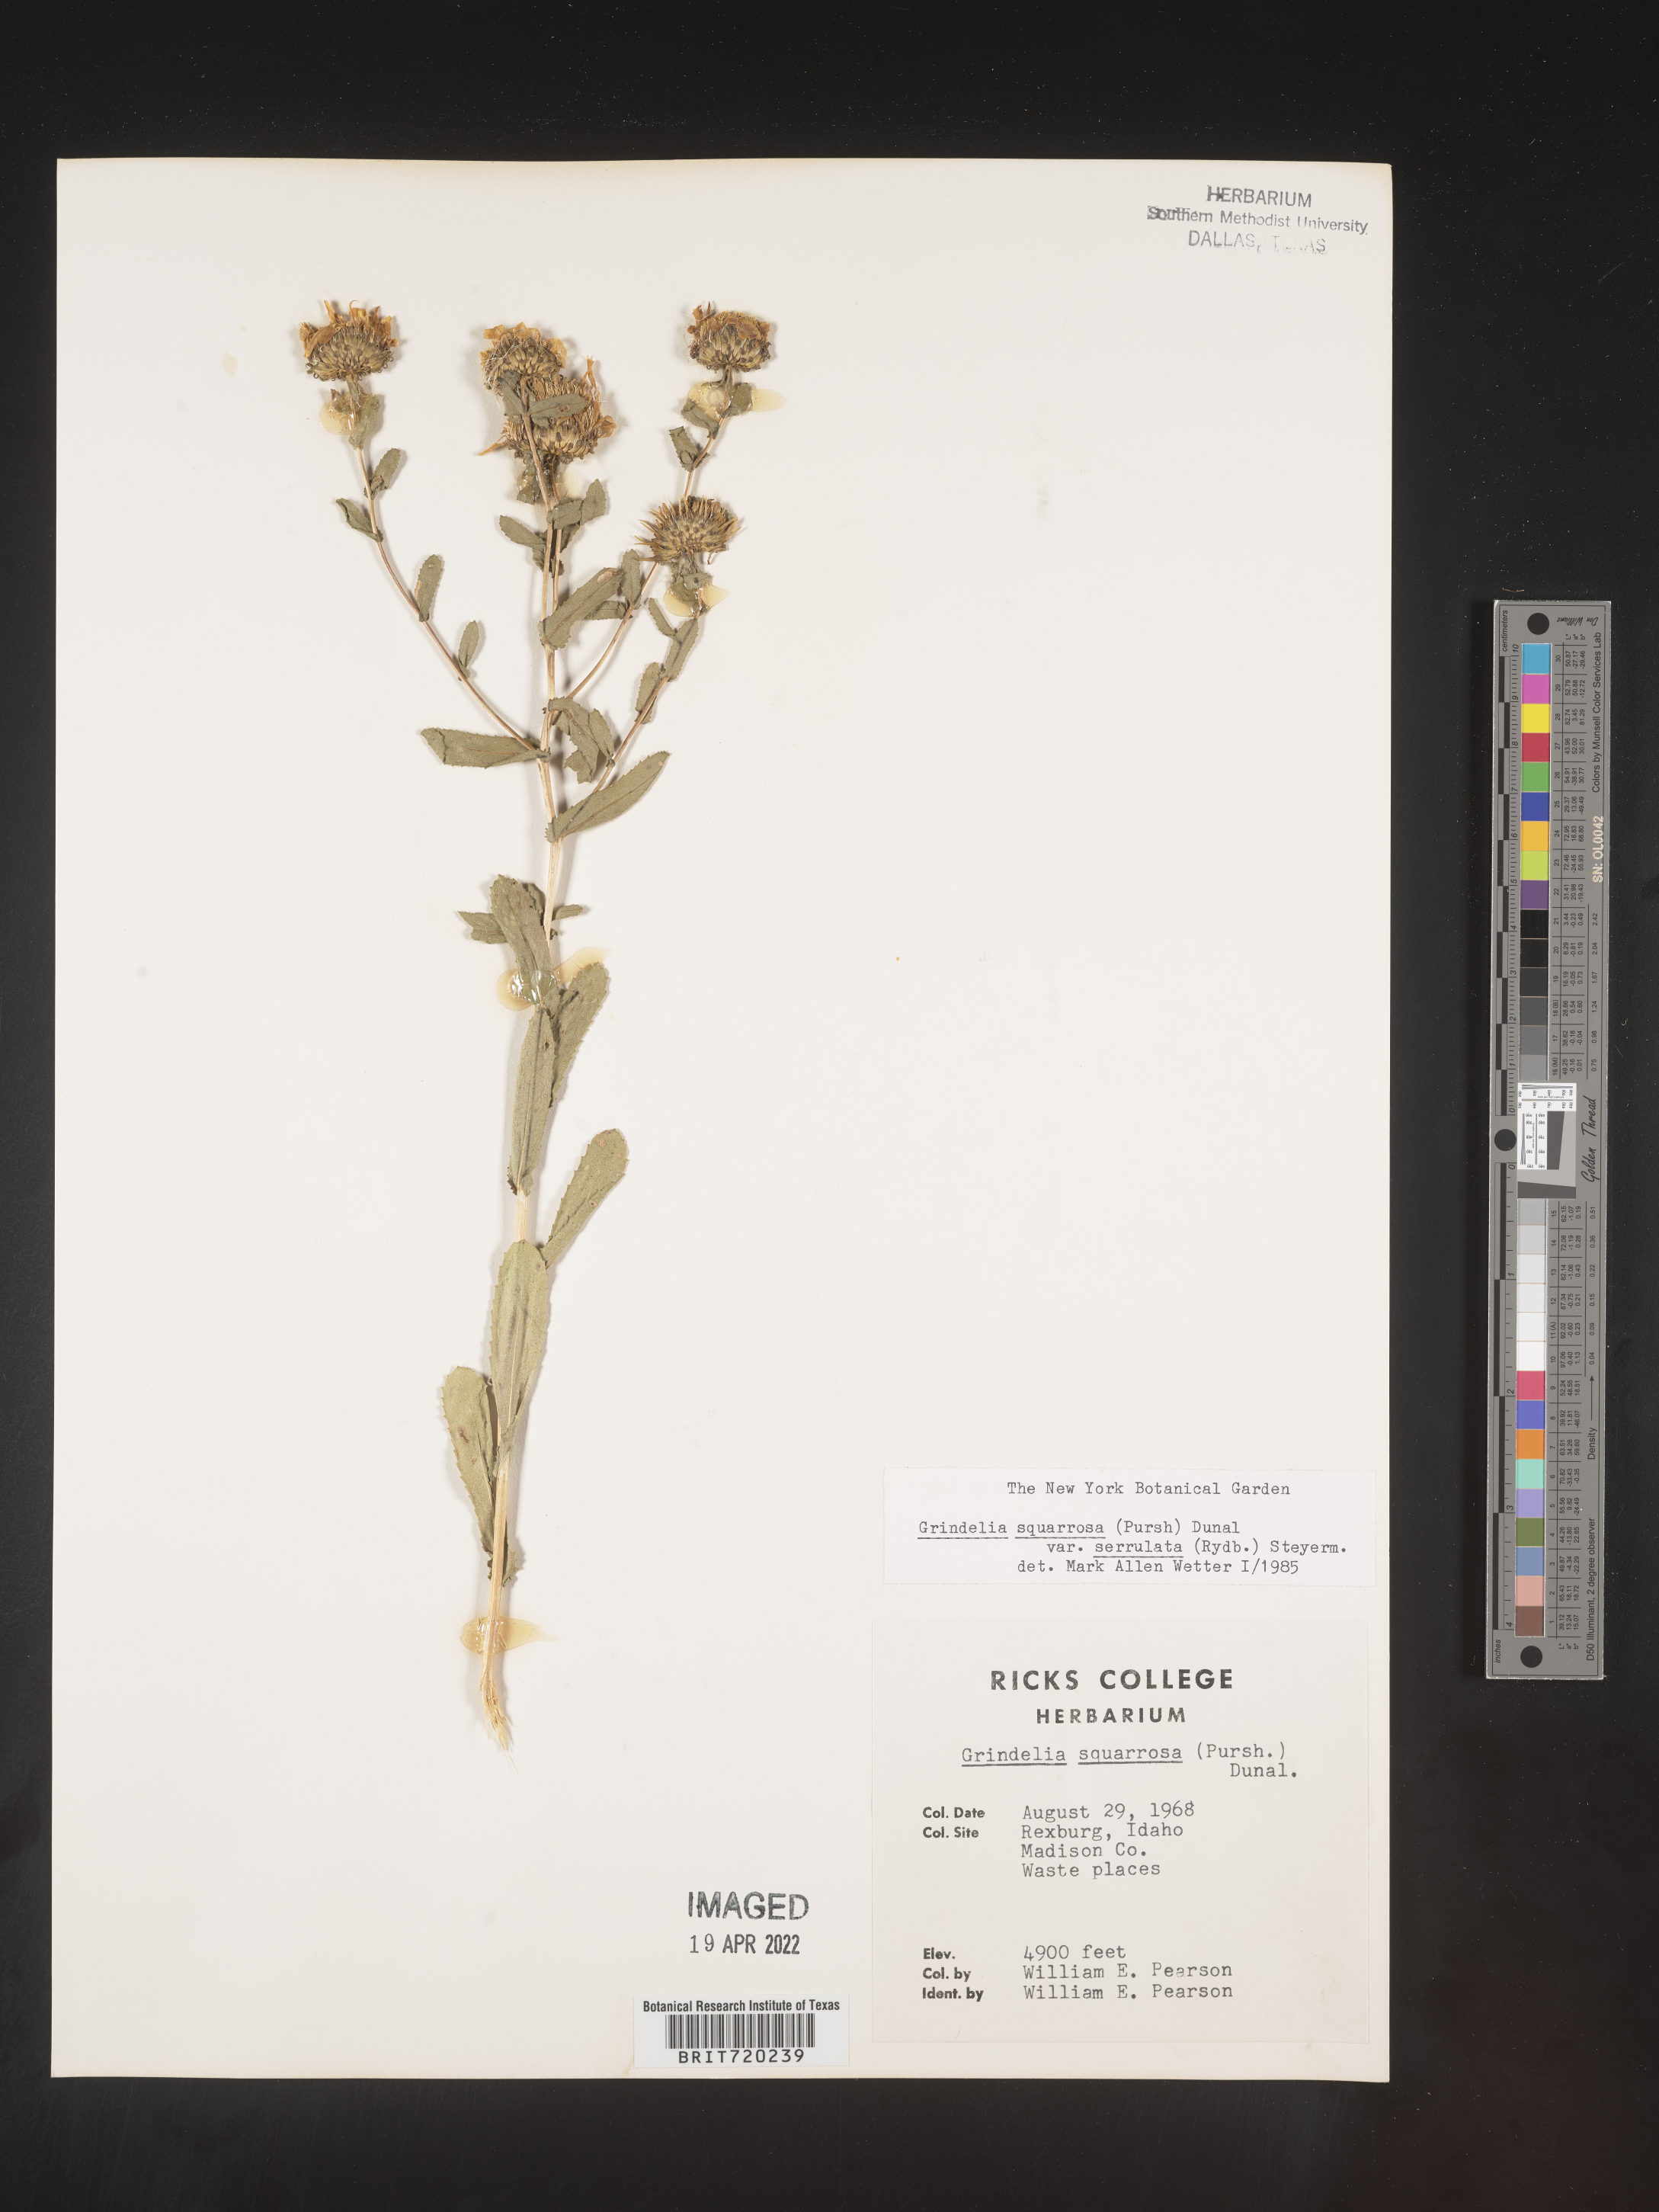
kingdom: Plantae
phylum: Tracheophyta
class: Magnoliopsida
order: Asterales
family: Asteraceae
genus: Grindelia
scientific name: Grindelia squarrosa
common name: Curly-cup gumweed
